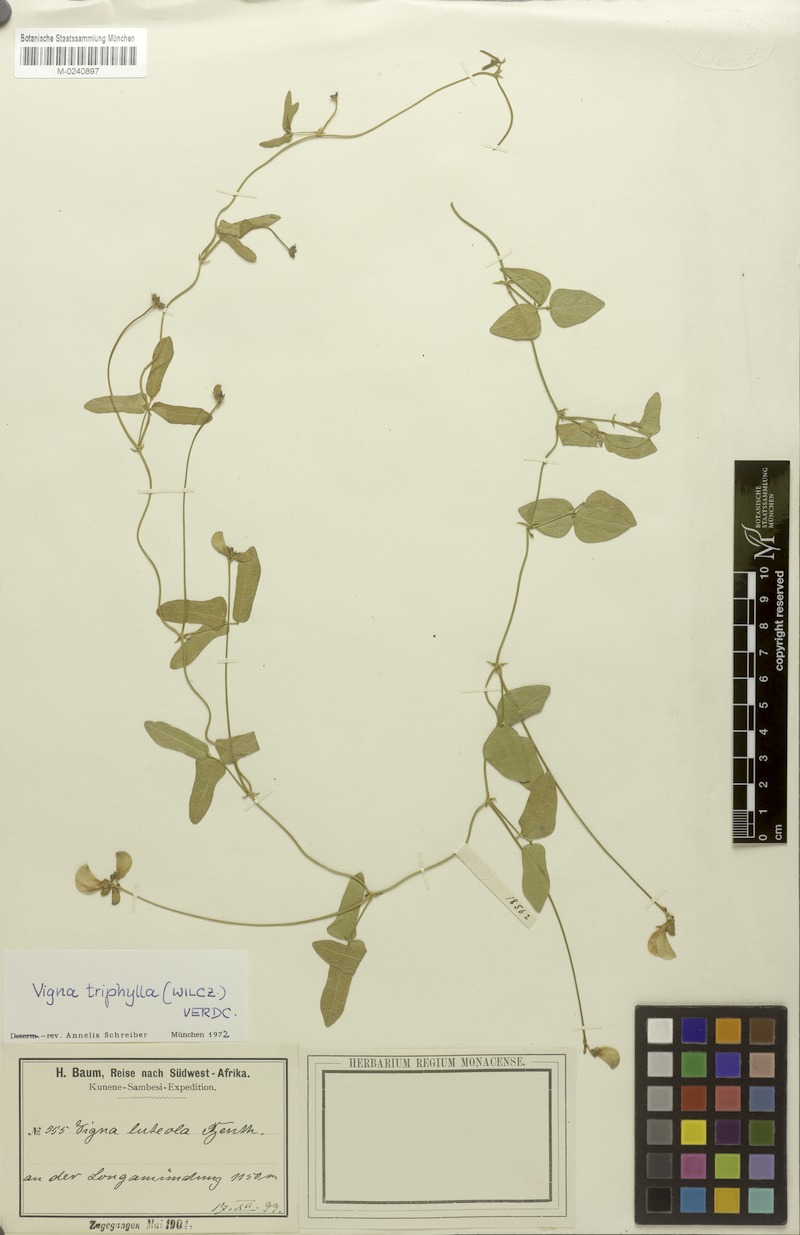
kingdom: Plantae
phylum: Tracheophyta
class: Magnoliopsida
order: Fabales
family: Fabaceae
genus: Vigna
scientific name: Vigna triphylla
